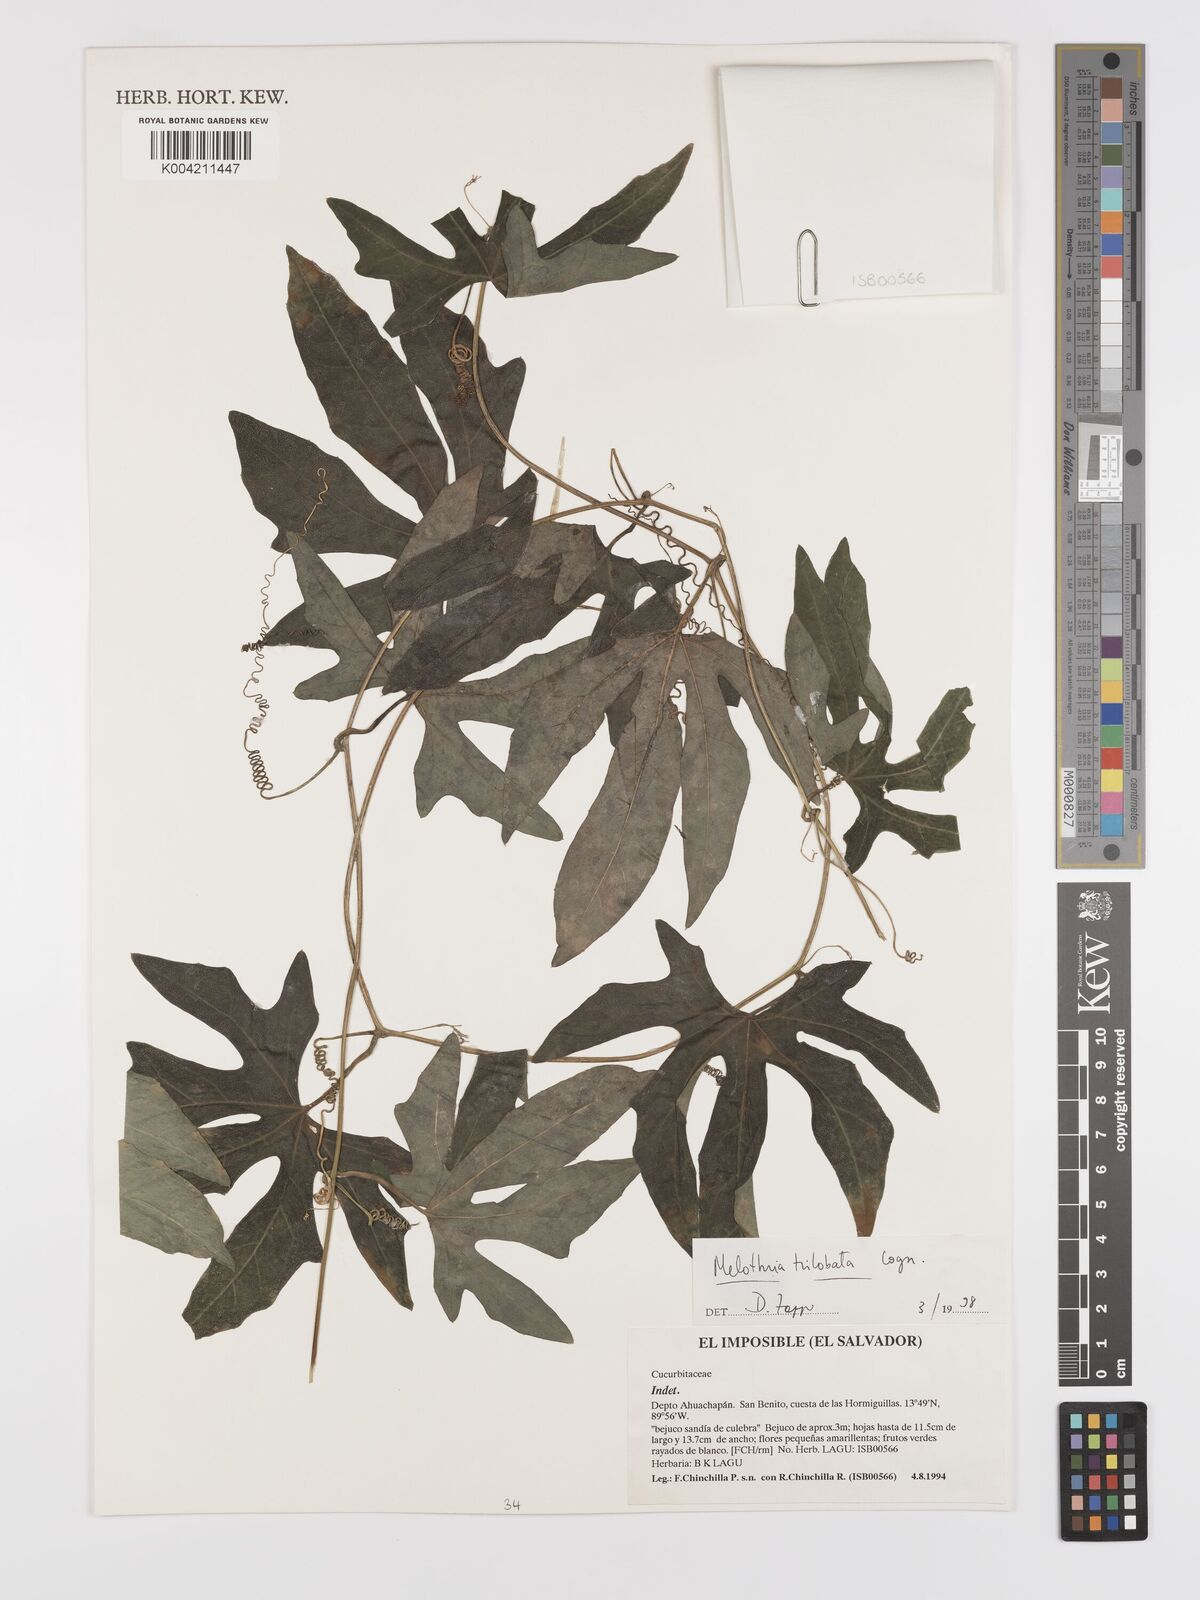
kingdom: Plantae
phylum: Tracheophyta
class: Magnoliopsida
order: Cucurbitales
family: Cucurbitaceae
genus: Melothria
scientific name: Melothria trilobata
